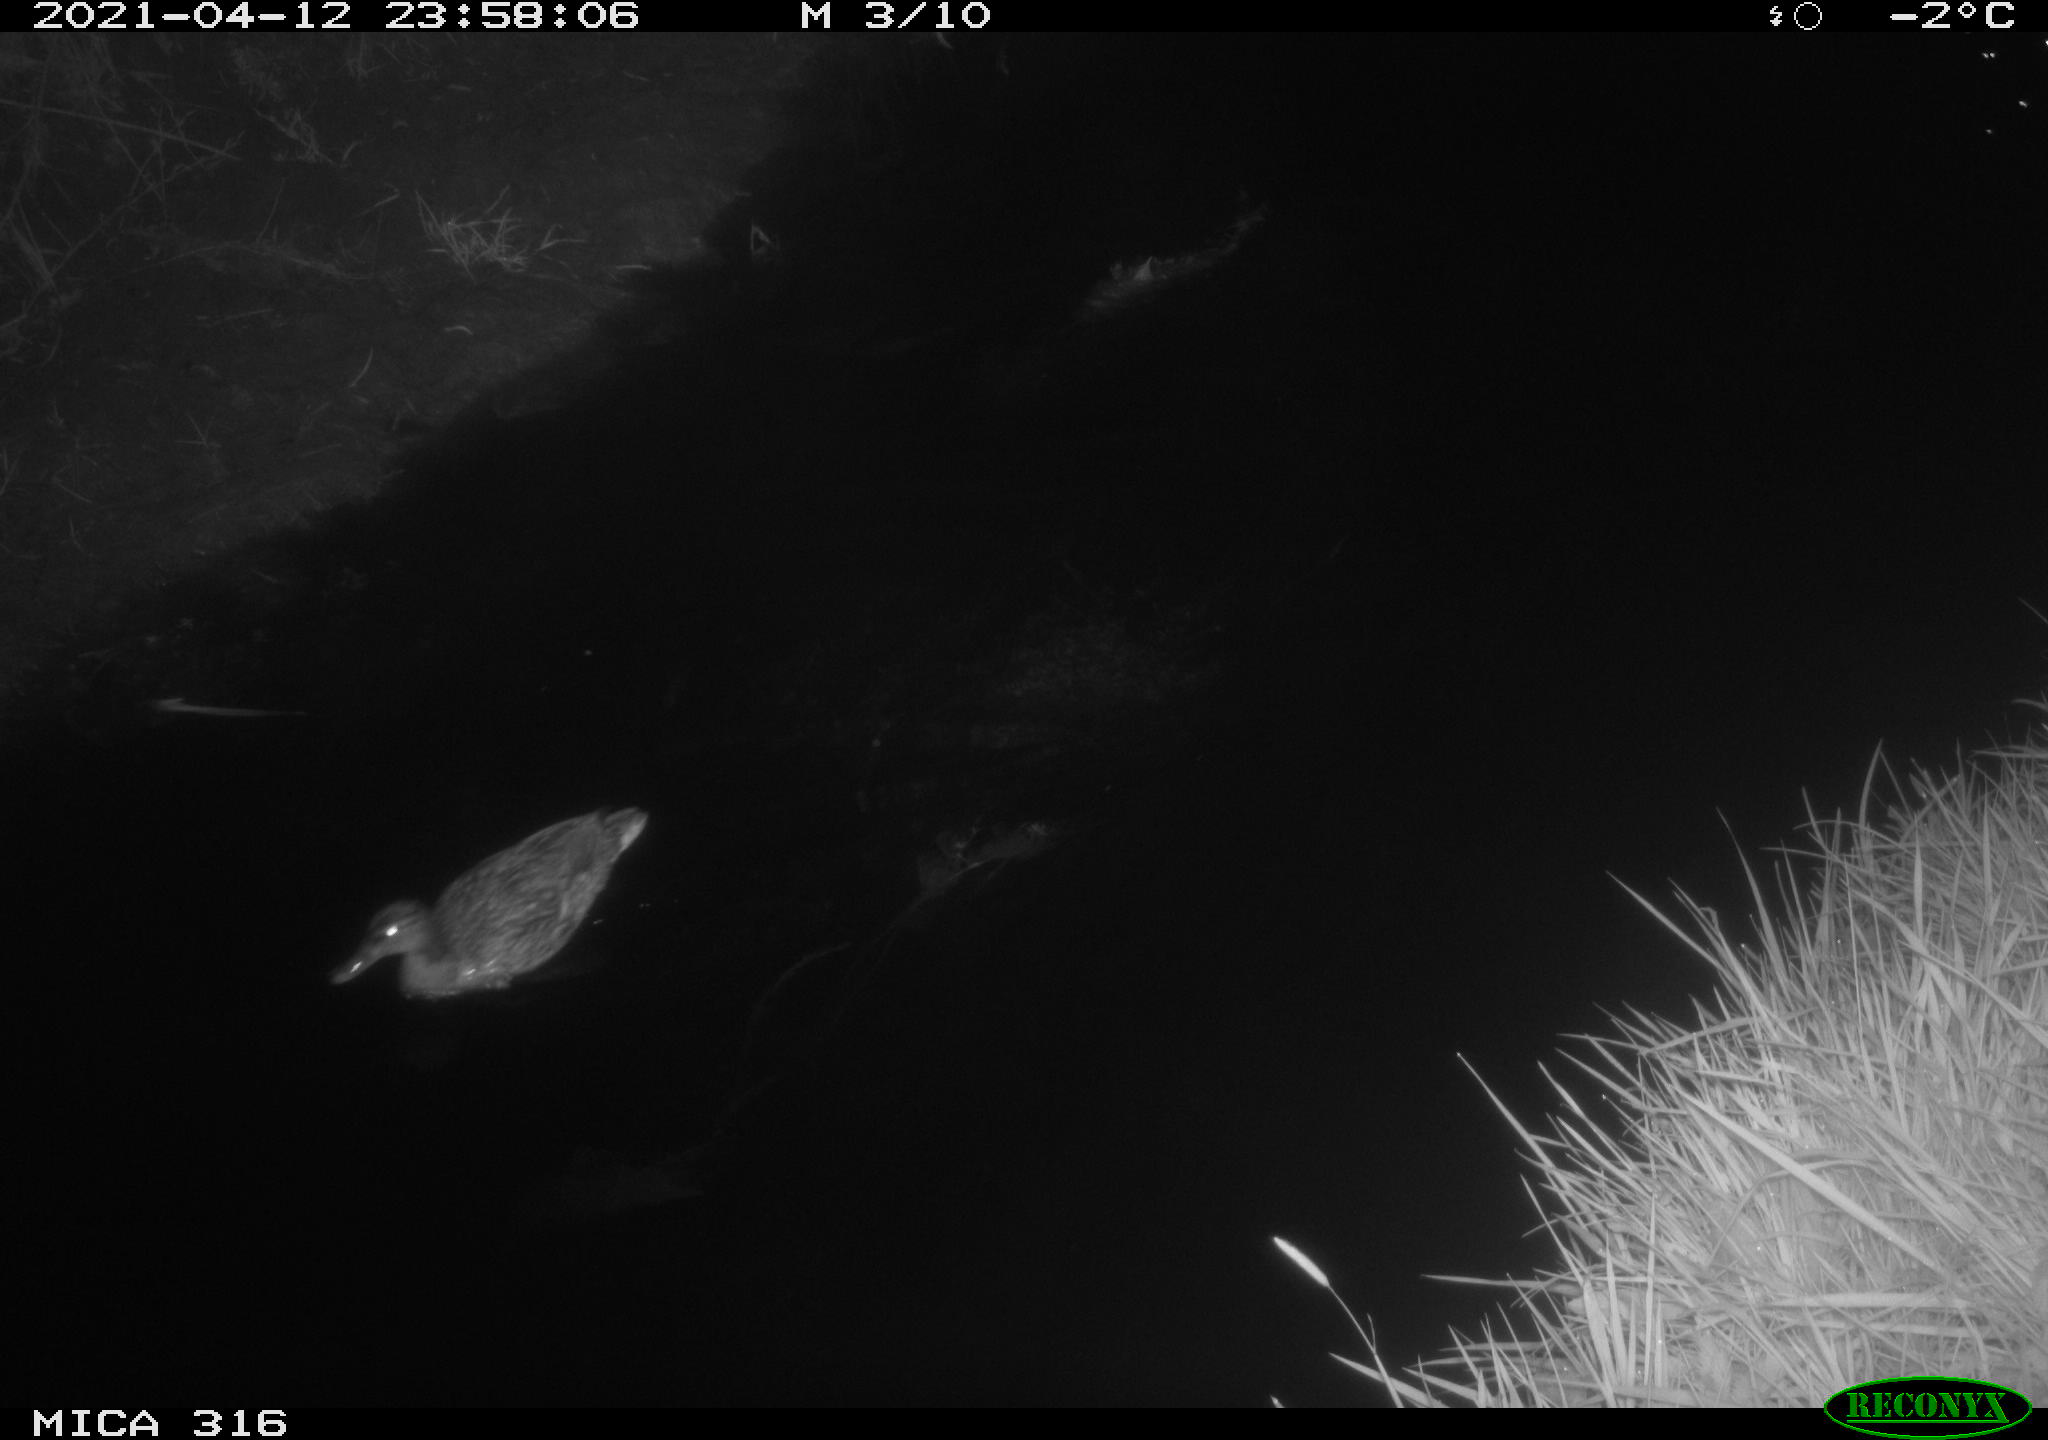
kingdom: Animalia
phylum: Chordata
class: Aves
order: Anseriformes
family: Anatidae
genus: Anas
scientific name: Anas platyrhynchos
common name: Mallard
